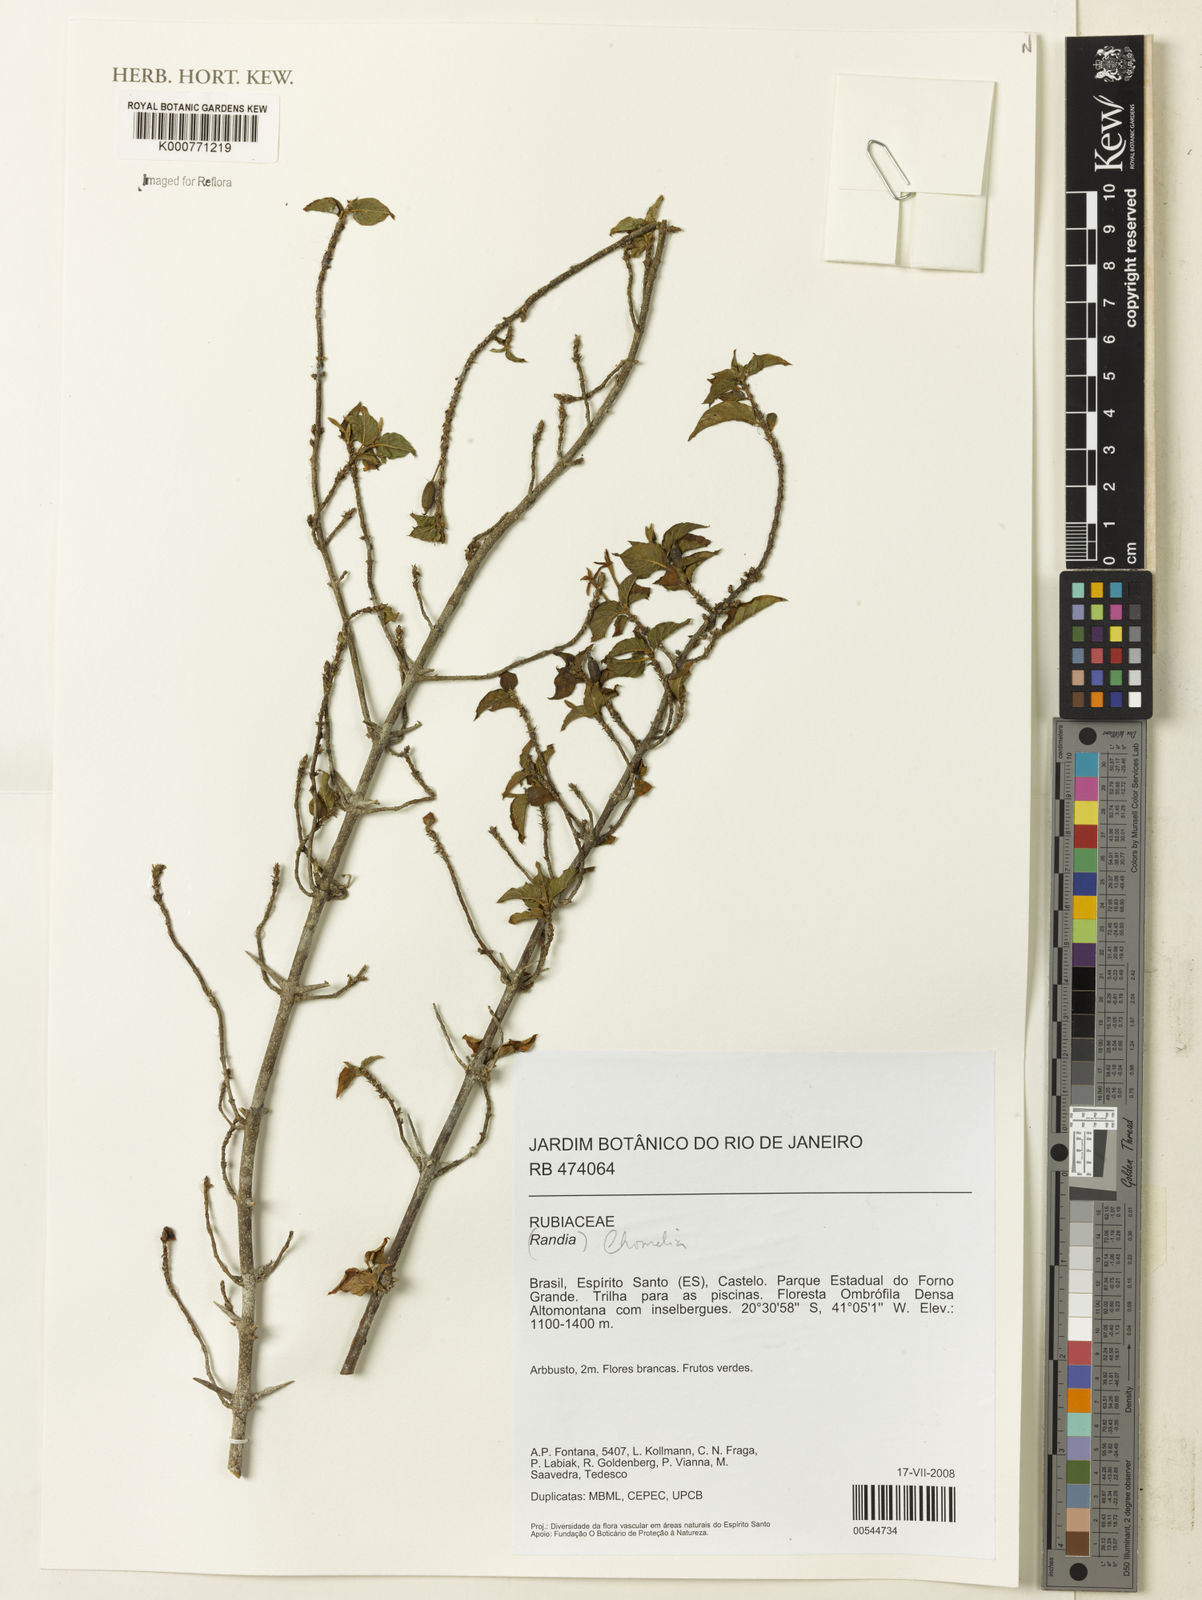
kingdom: Plantae
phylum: Tracheophyta
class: Magnoliopsida
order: Gentianales
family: Rubiaceae
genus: Chomelia
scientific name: Chomelia
